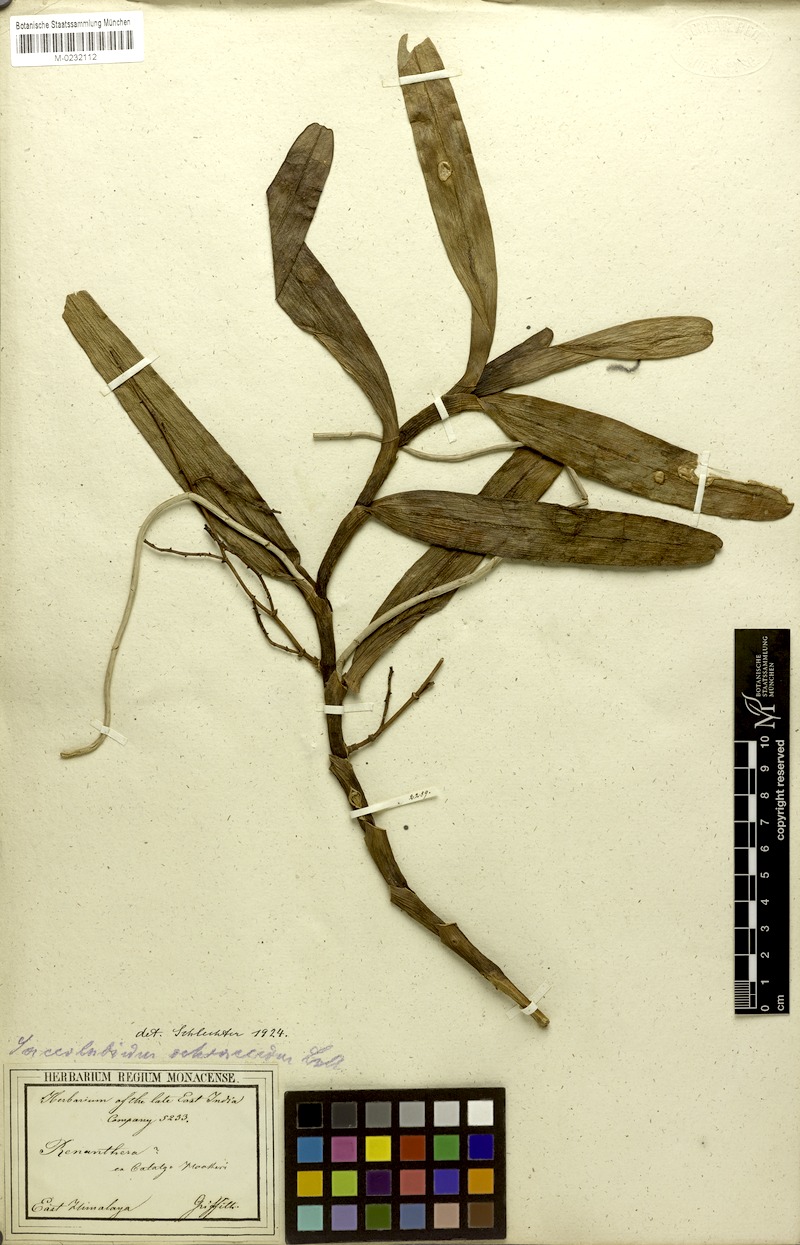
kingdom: Plantae
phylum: Tracheophyta
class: Liliopsida
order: Asparagales
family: Orchidaceae
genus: Acampe
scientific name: Acampe ochracea
